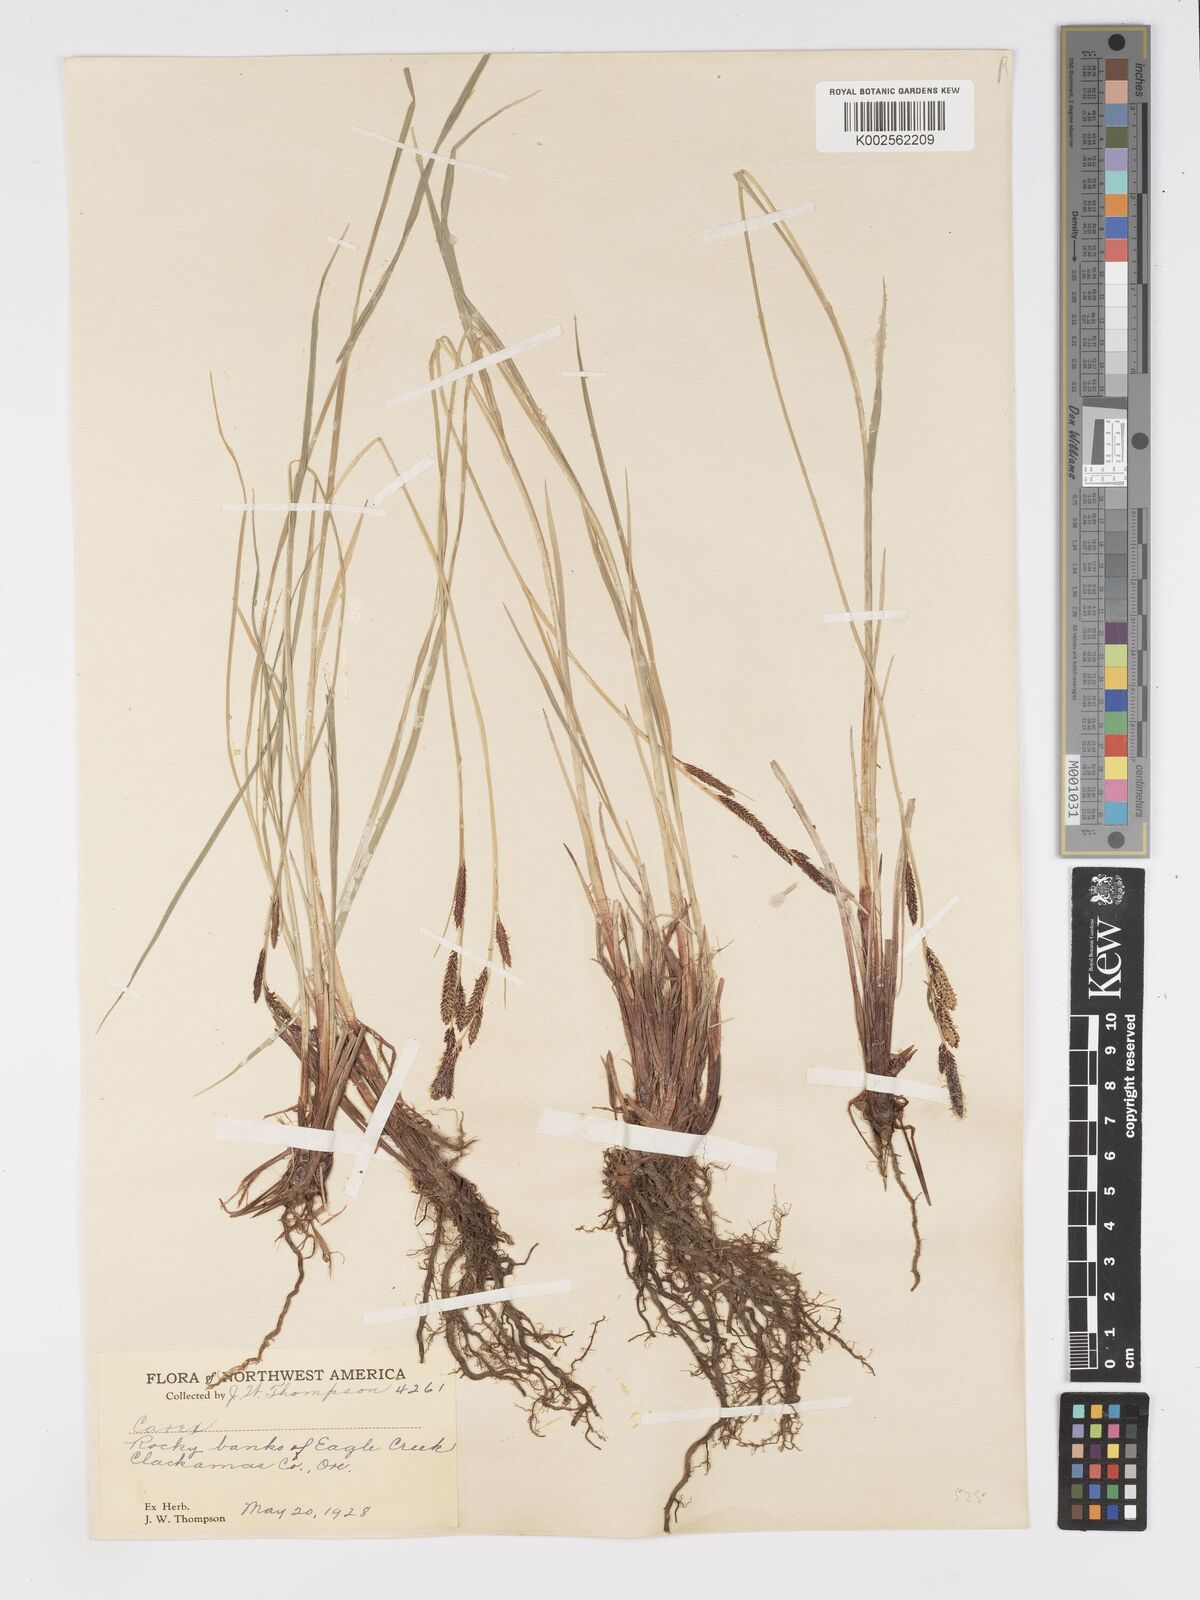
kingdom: Plantae
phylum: Tracheophyta
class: Liliopsida
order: Poales
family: Cyperaceae
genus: Carex
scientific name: Carex nigra
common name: Common sedge
